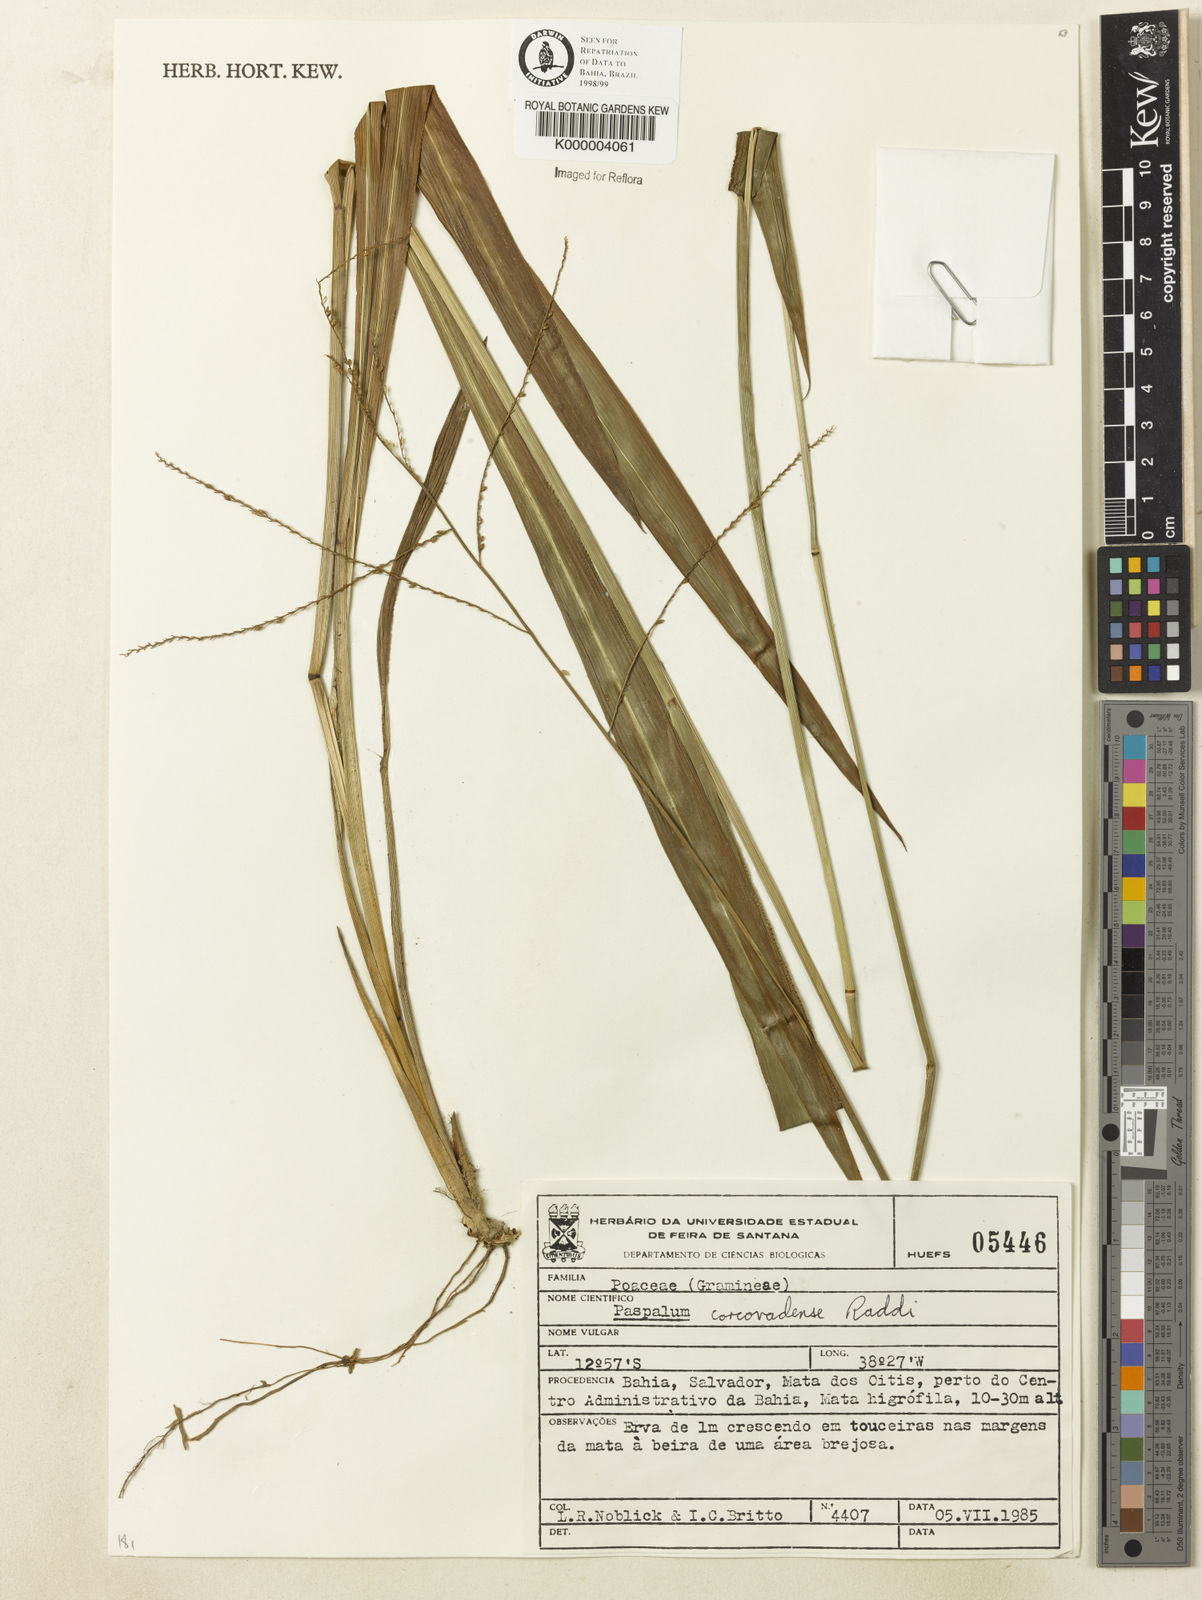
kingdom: Plantae
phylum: Tracheophyta
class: Liliopsida
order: Poales
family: Poaceae
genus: Paspalum
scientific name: Paspalum corcovadense
